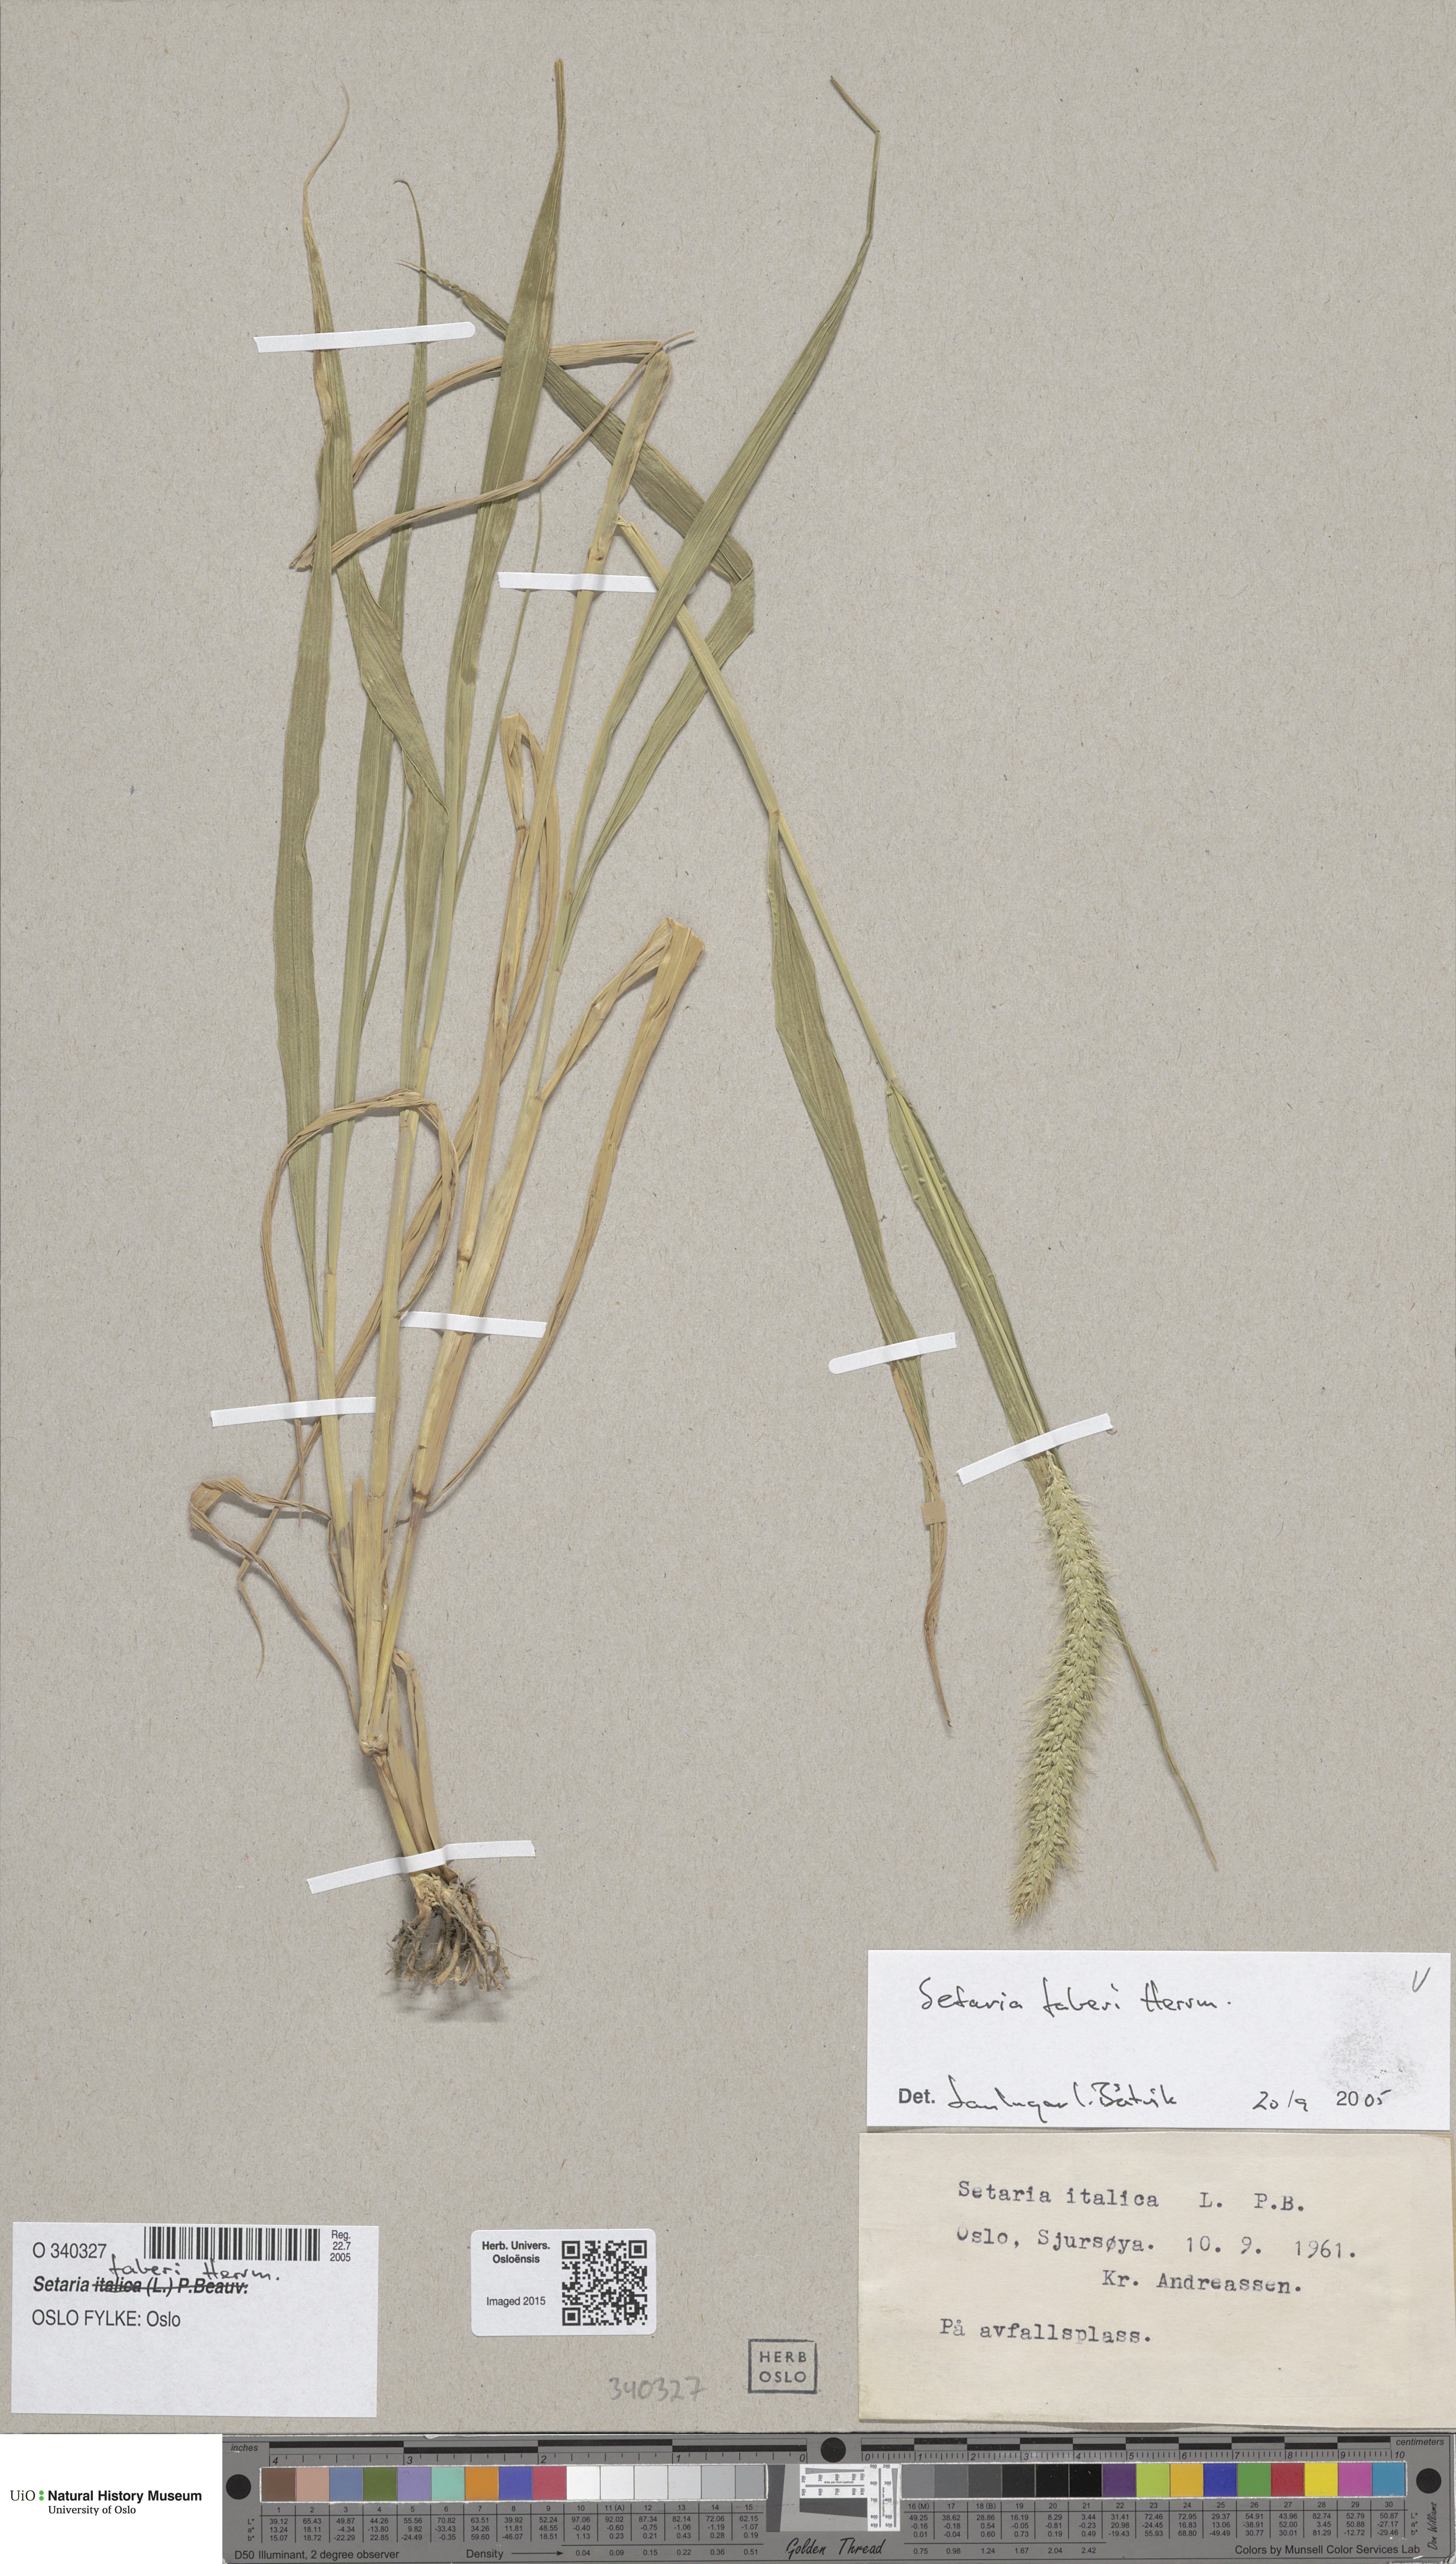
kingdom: Plantae
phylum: Tracheophyta
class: Liliopsida
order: Poales
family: Poaceae
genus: Setaria
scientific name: Setaria faberi
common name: Nodding bristle-grass
